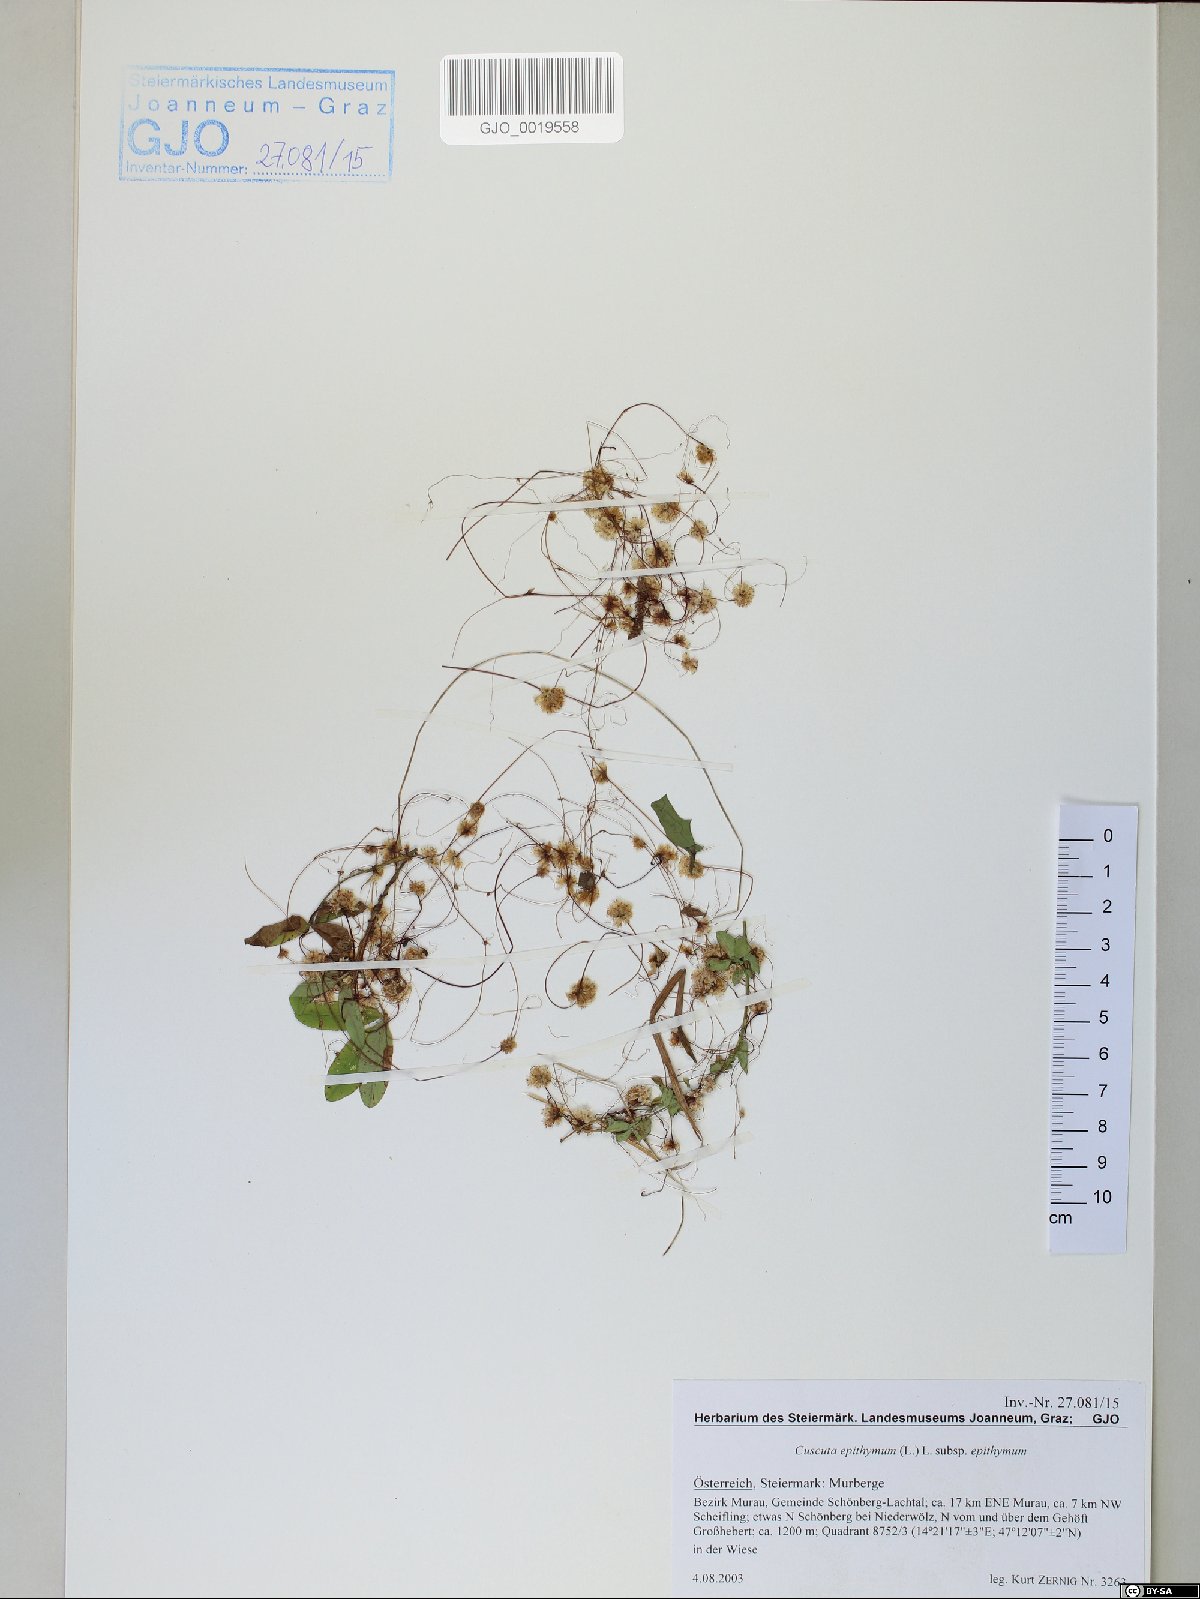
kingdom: Plantae
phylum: Tracheophyta
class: Magnoliopsida
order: Solanales
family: Convolvulaceae
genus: Cuscuta
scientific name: Cuscuta epithymum
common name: Clover dodder
